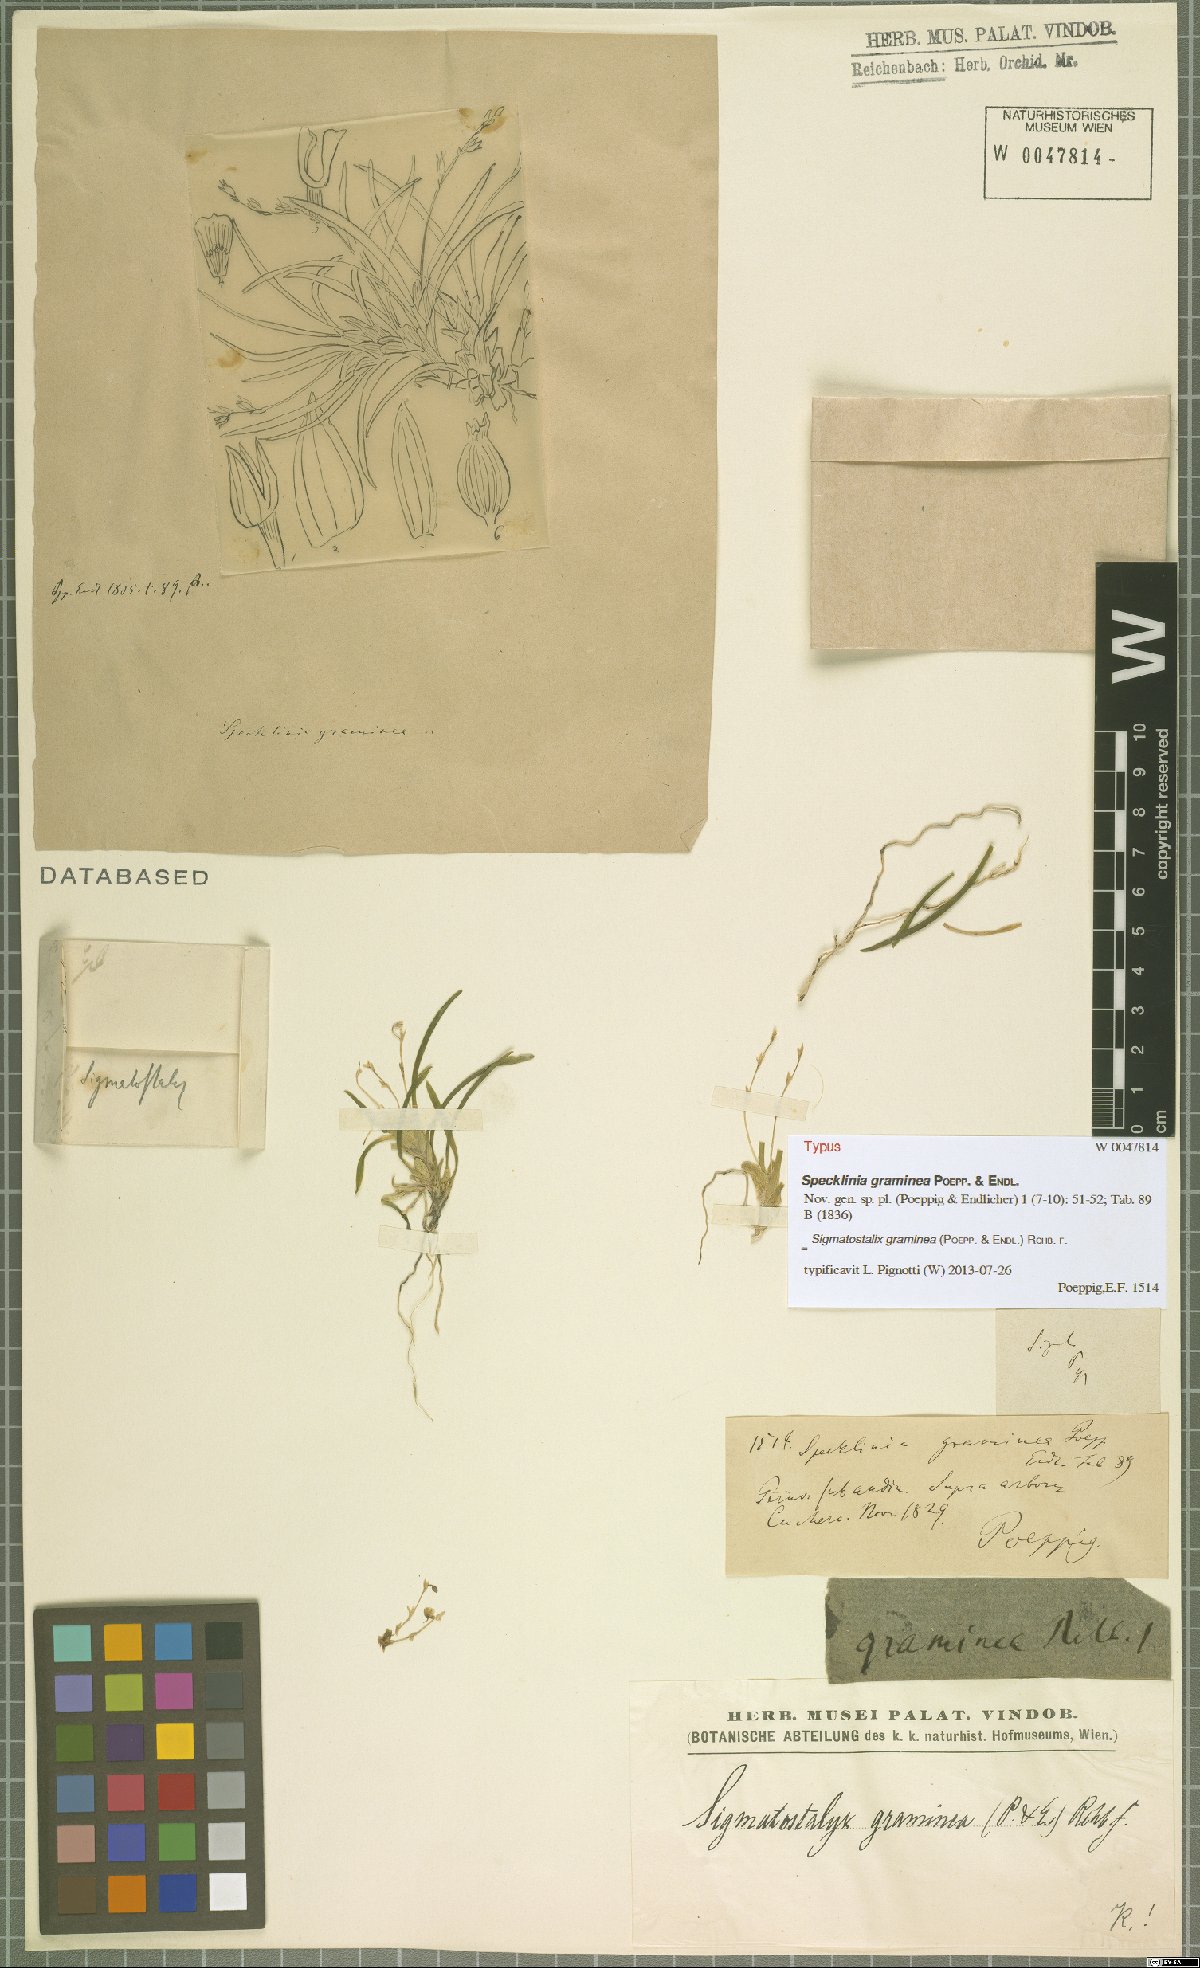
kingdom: Plantae
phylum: Tracheophyta
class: Liliopsida
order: Asparagales
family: Orchidaceae
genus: Oncidium
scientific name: Oncidium gramineum
